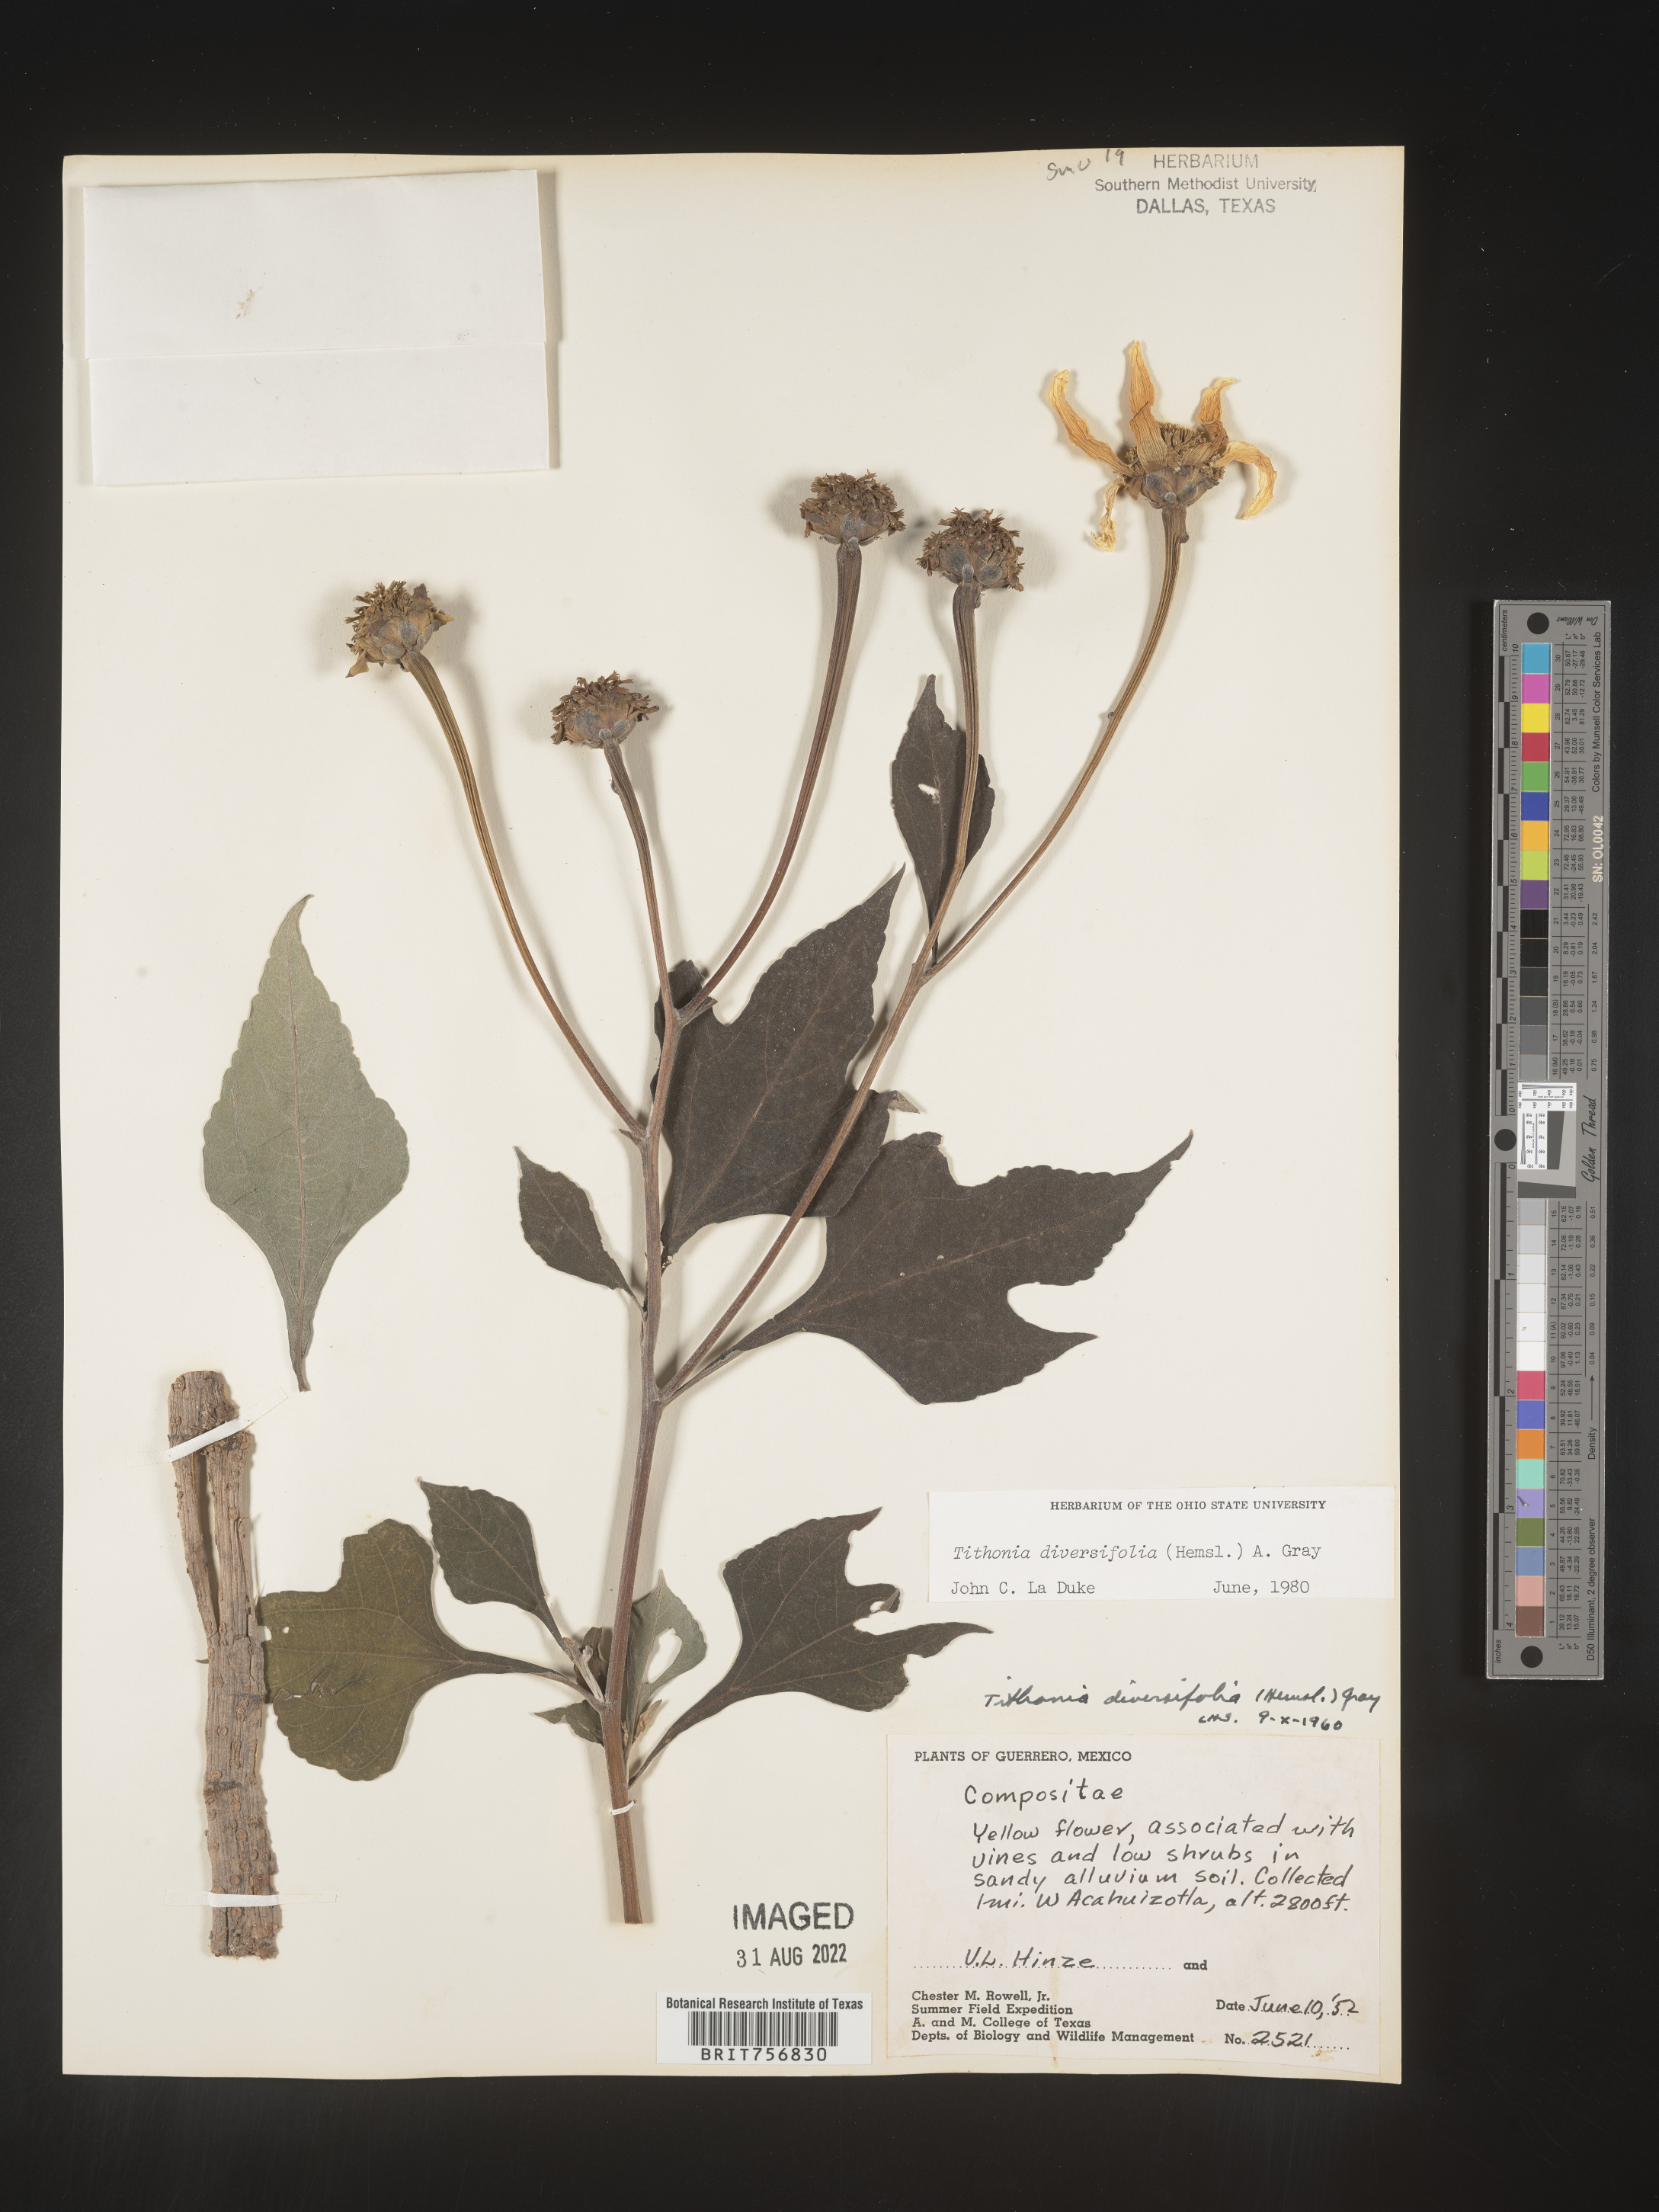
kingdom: Plantae
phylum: Tracheophyta
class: Magnoliopsida
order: Asterales
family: Asteraceae
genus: Tithonia
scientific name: Tithonia
